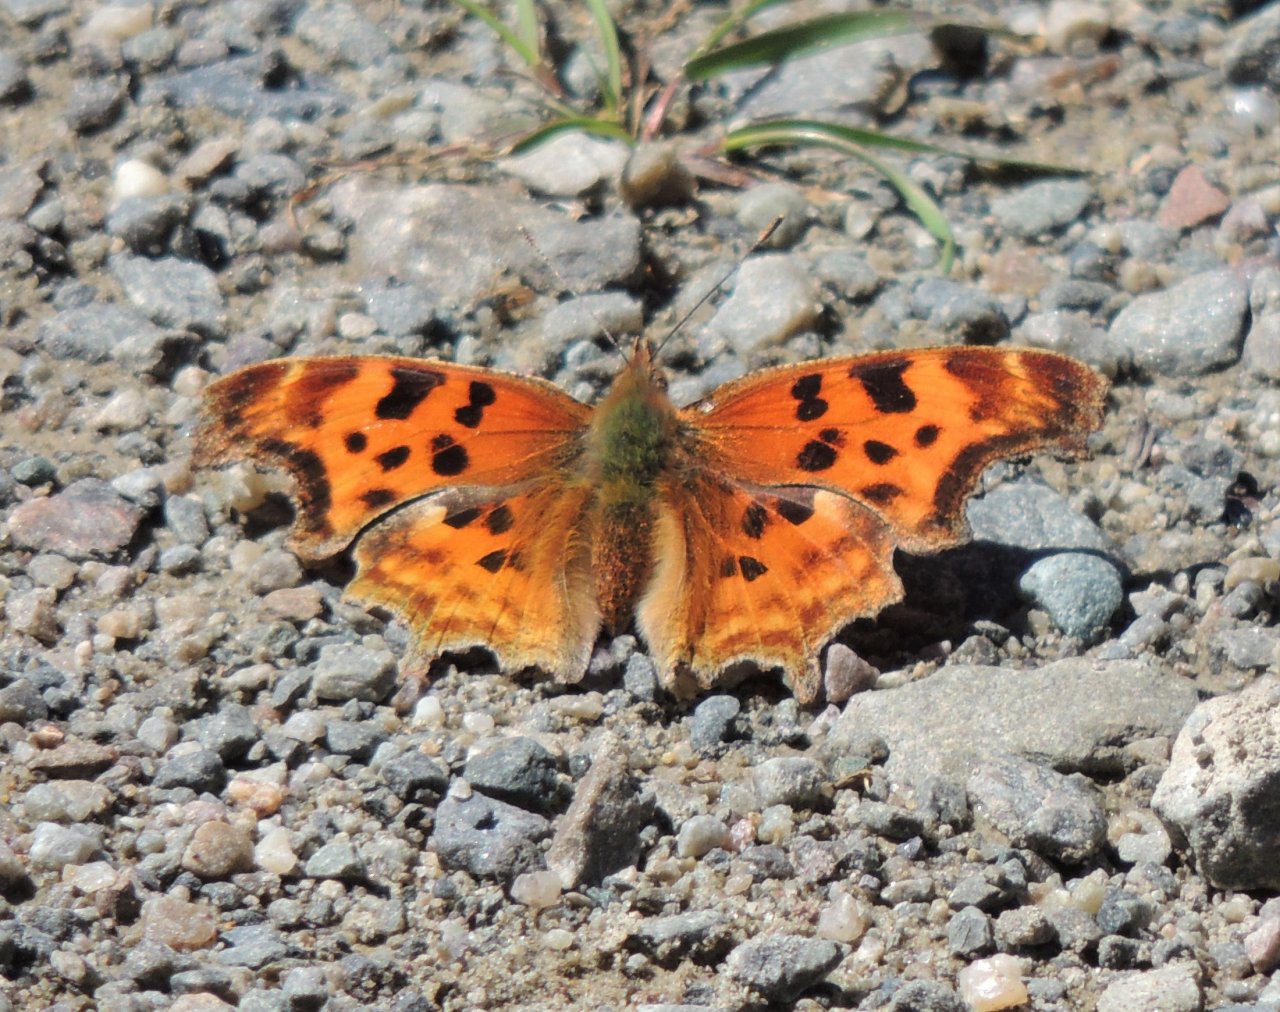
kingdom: Animalia
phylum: Arthropoda
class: Insecta
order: Lepidoptera
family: Nymphalidae
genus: Polygonia
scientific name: Polygonia satyrus
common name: Satyr Comma
